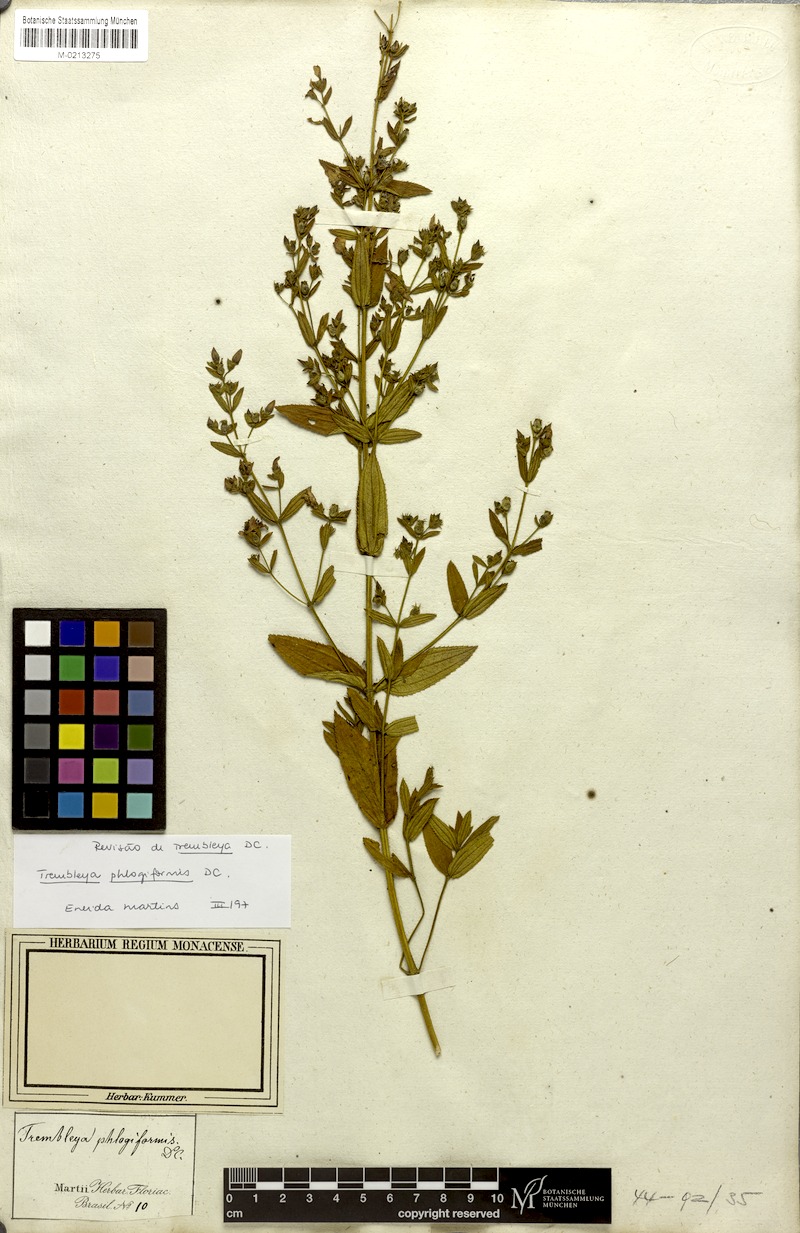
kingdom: Plantae
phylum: Tracheophyta
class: Magnoliopsida
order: Myrtales
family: Melastomataceae
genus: Microlicia
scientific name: Microlicia phlogiformis
